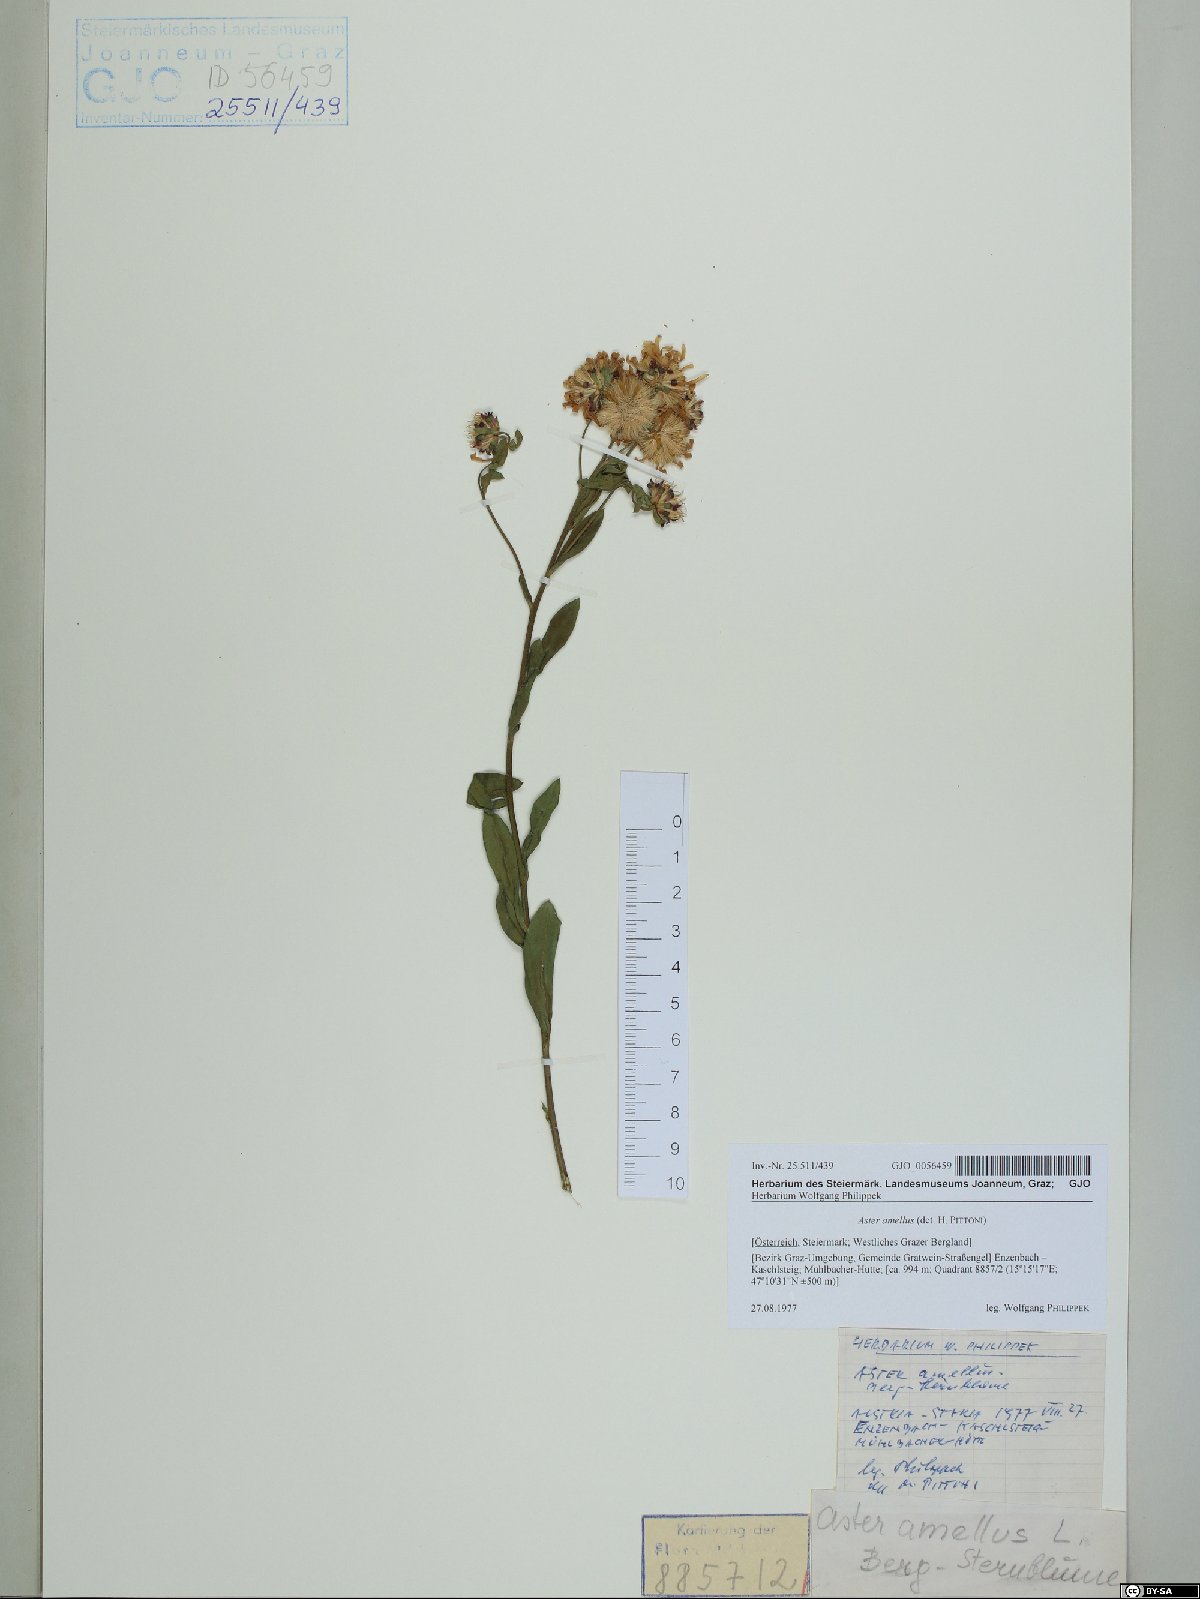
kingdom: Plantae
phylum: Tracheophyta
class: Magnoliopsida
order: Asterales
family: Asteraceae
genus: Aster
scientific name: Aster amellus
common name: European michaelmas daisy
